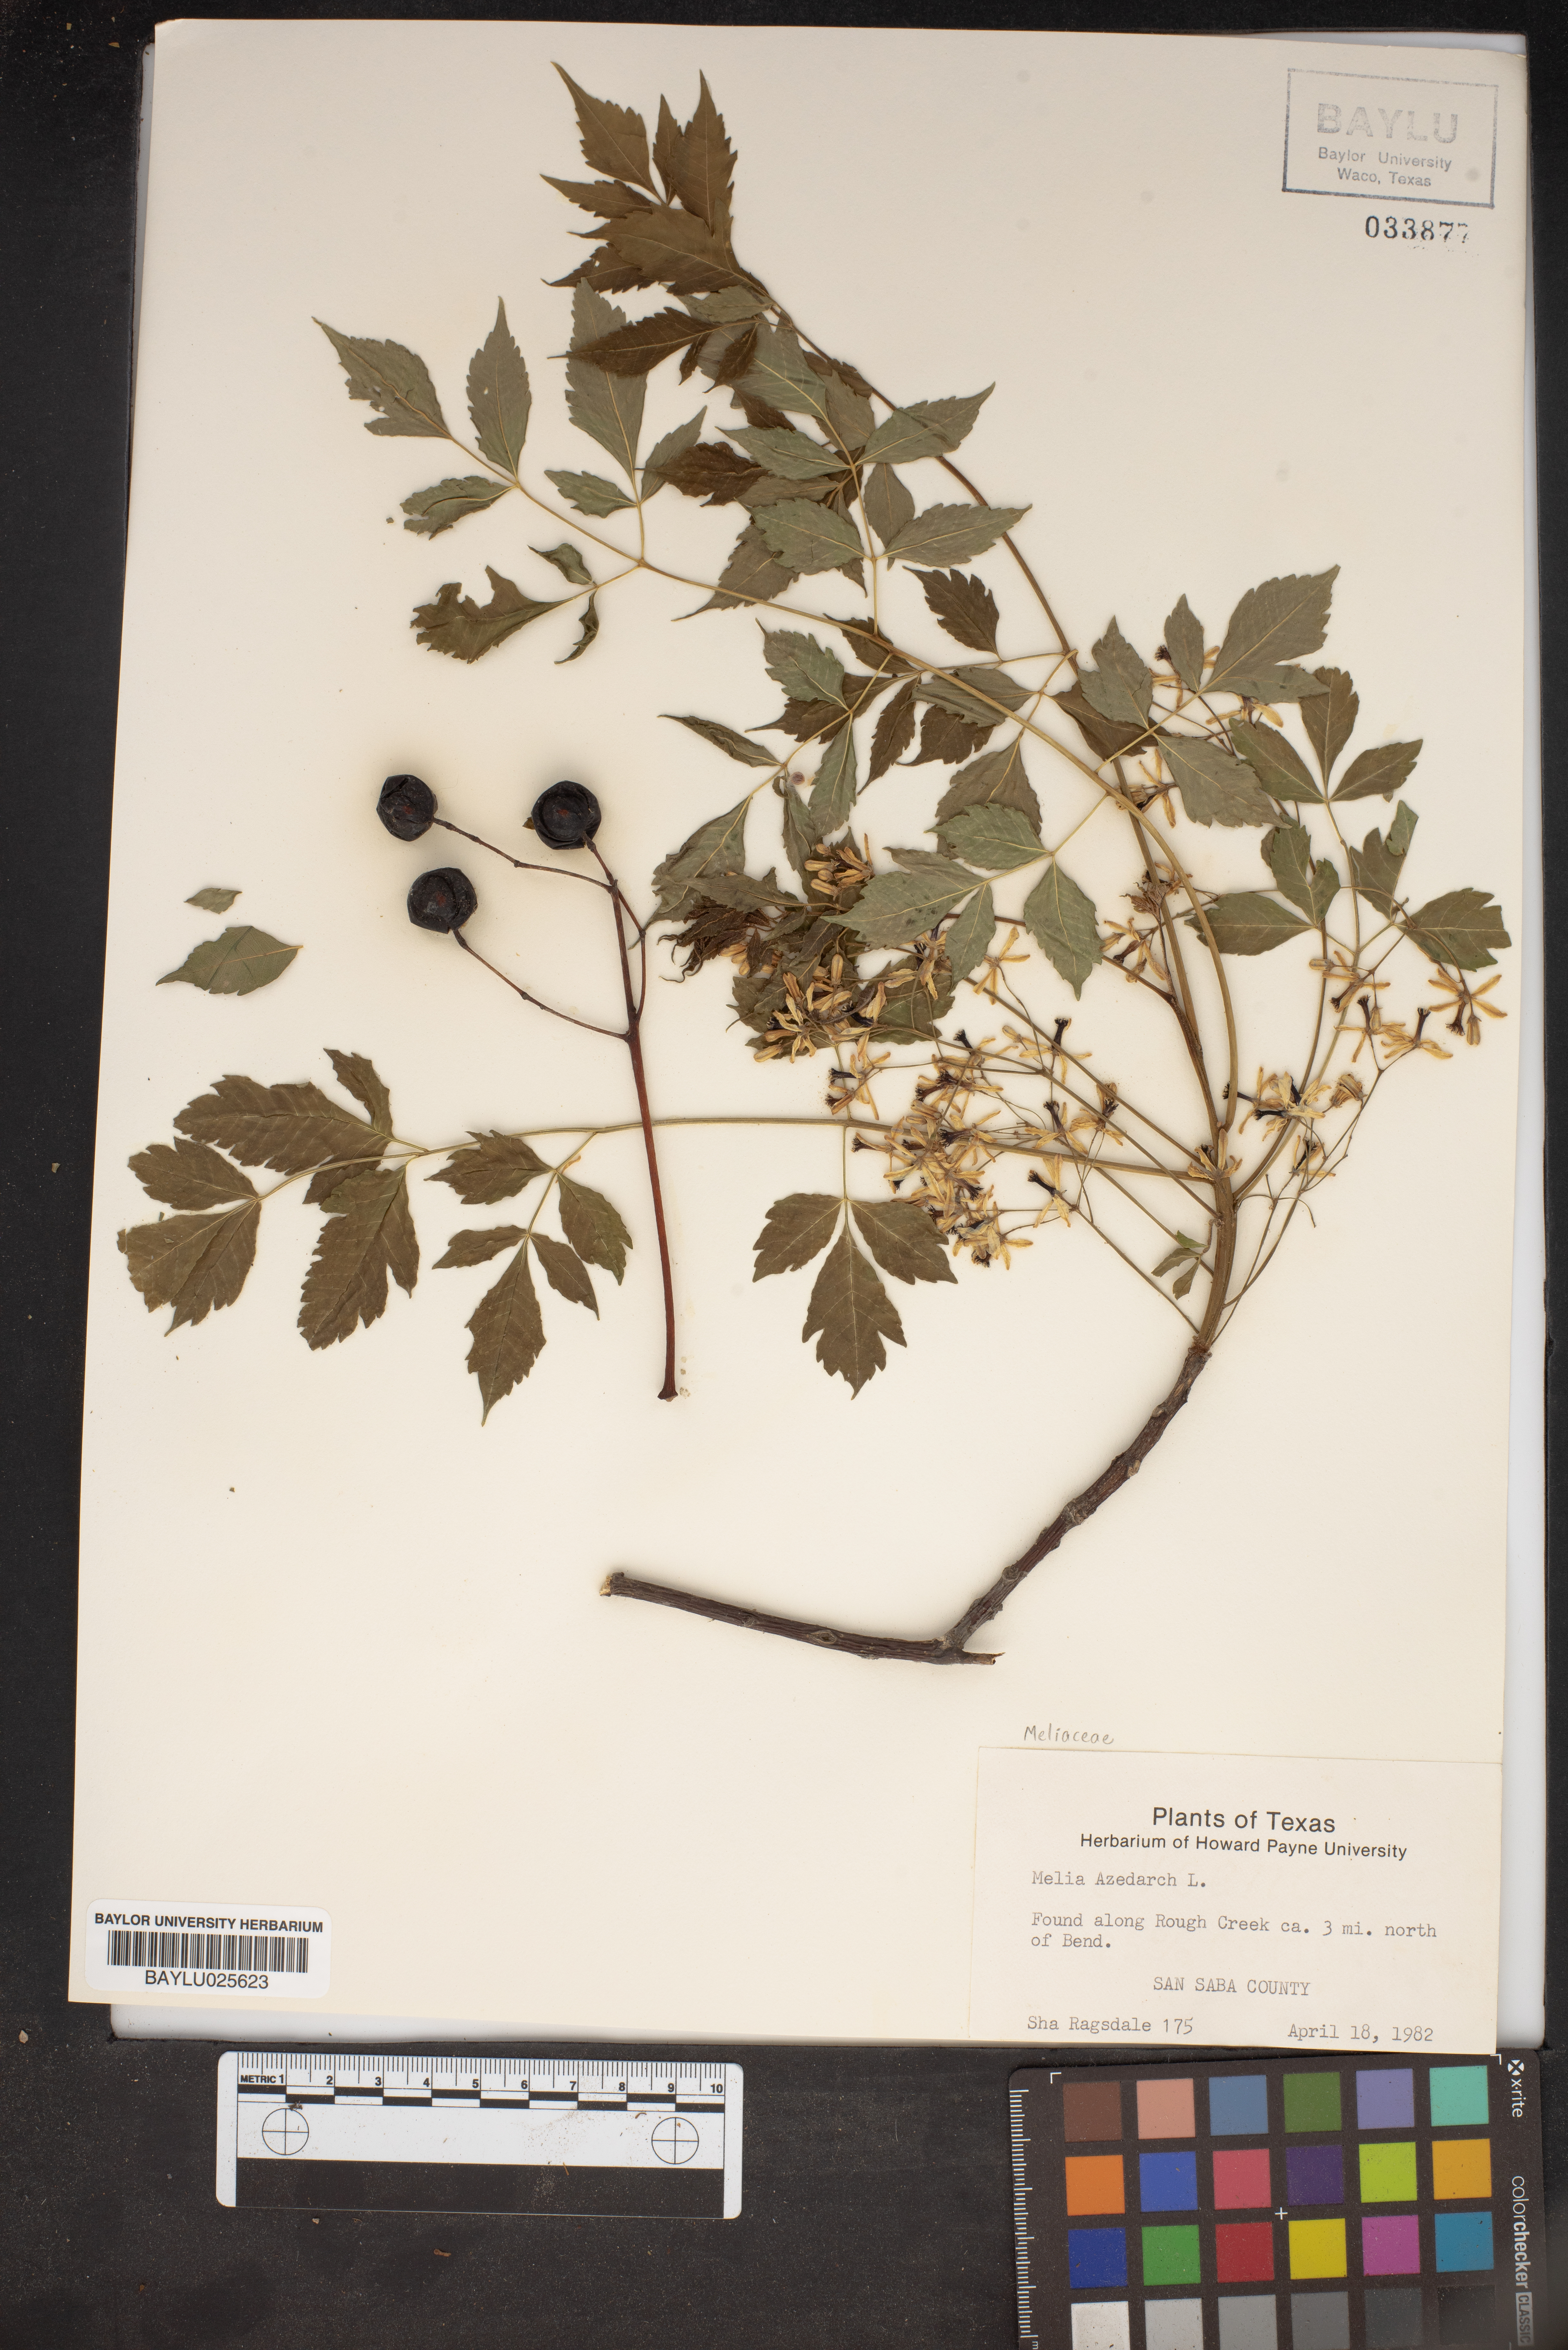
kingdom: Plantae
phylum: Tracheophyta
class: Magnoliopsida
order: Sapindales
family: Meliaceae
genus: Melia
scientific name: Melia azedarach
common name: Chinaberrytree
